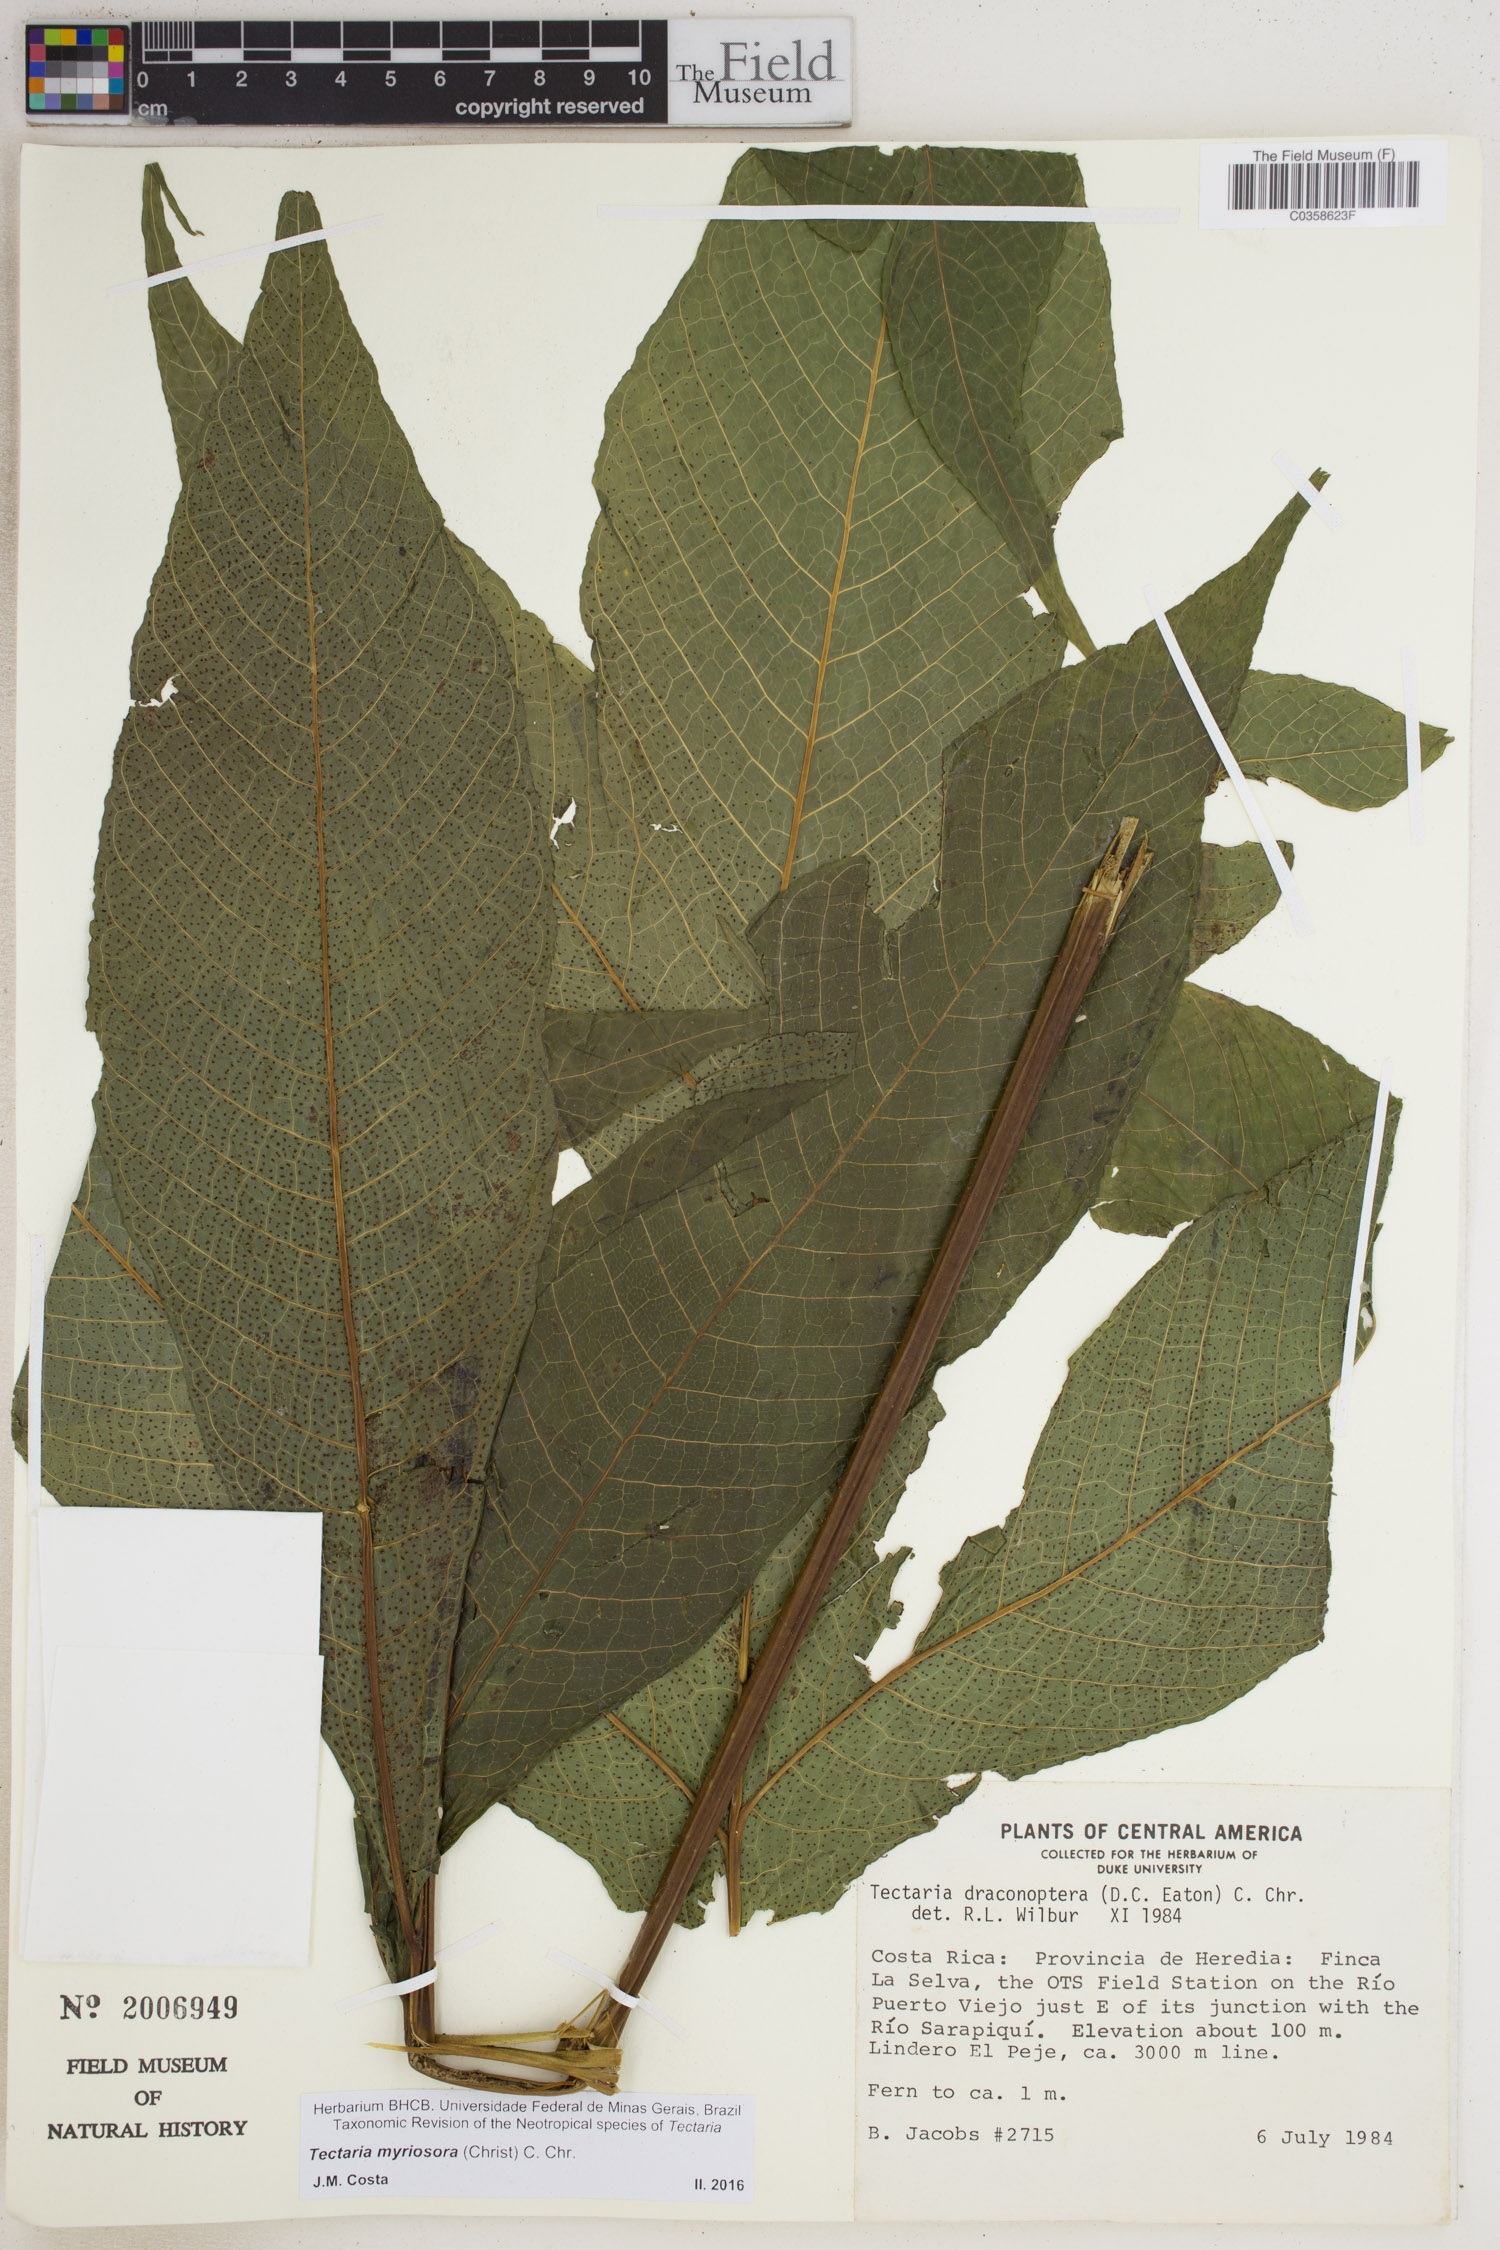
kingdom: Plantae
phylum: Tracheophyta
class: Polypodiopsida
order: Polypodiales
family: Tectariaceae
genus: Draconopteris
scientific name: Draconopteris draconoptera
